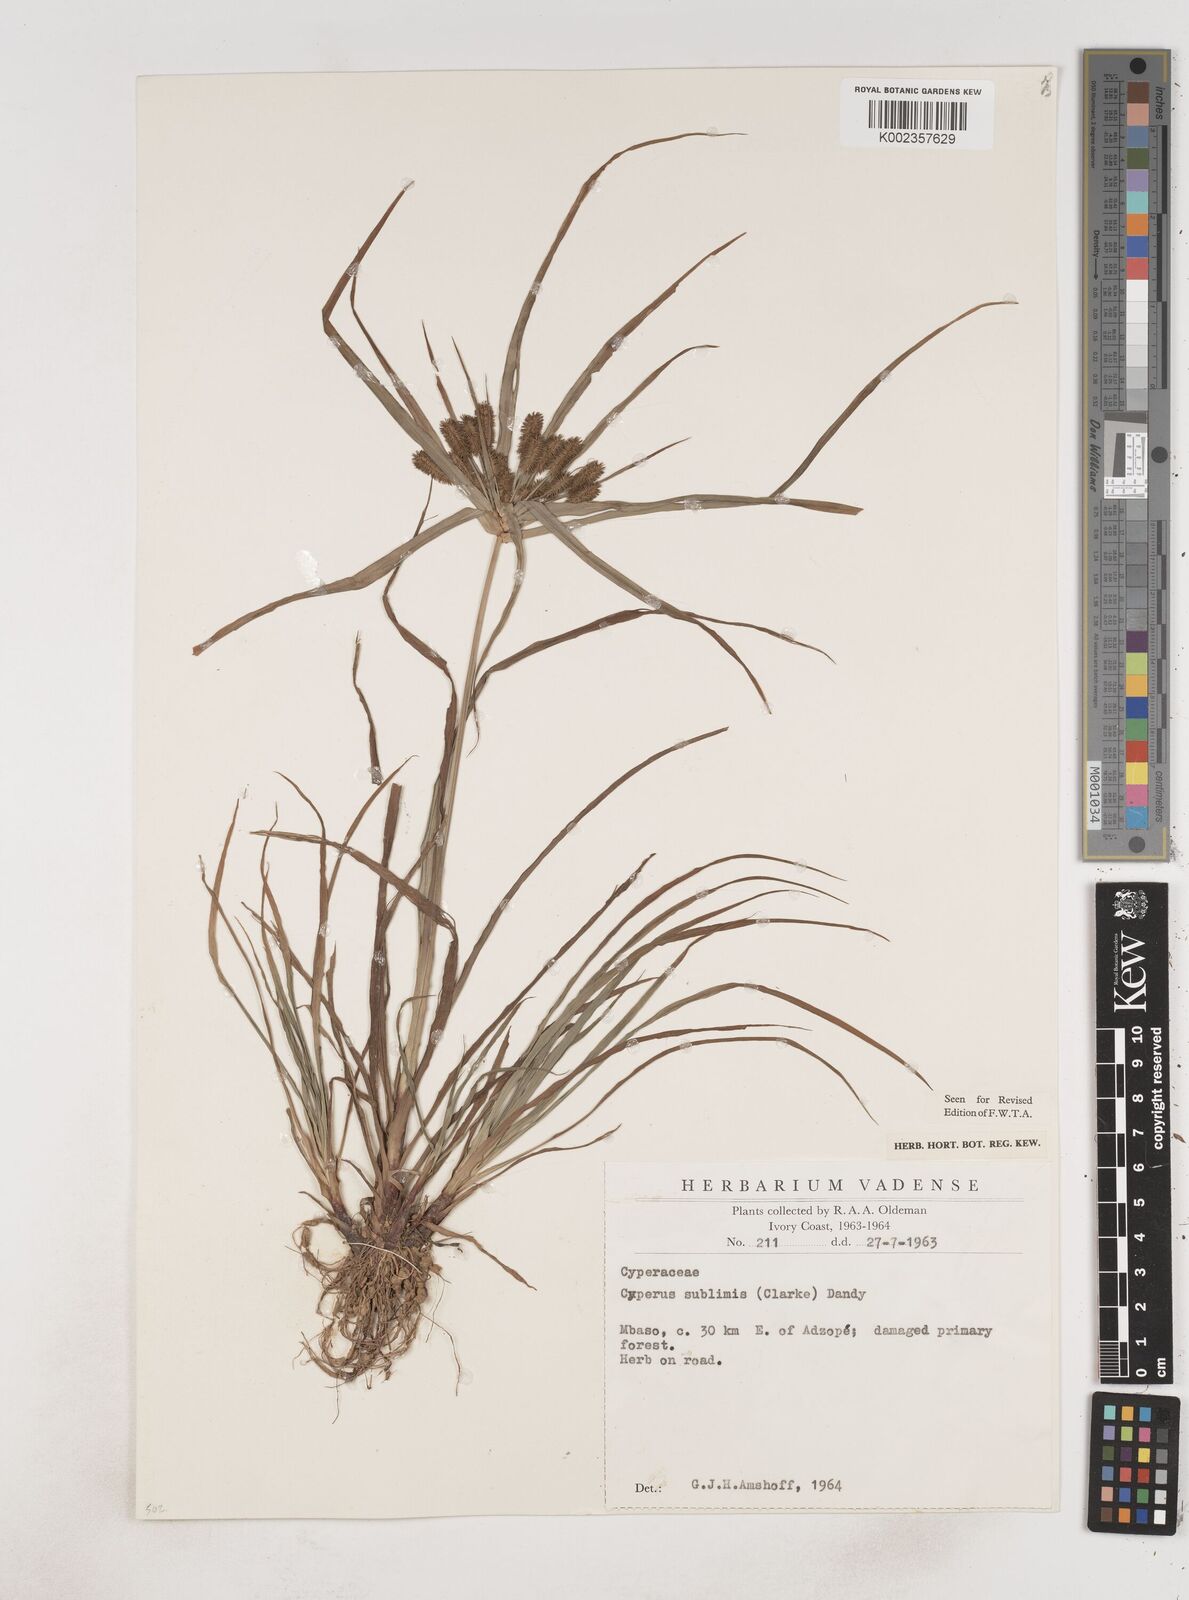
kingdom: Plantae
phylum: Tracheophyta
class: Liliopsida
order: Poales
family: Cyperaceae
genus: Cyperus
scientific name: Cyperus cyperoides
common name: Pacific island flat sedge
